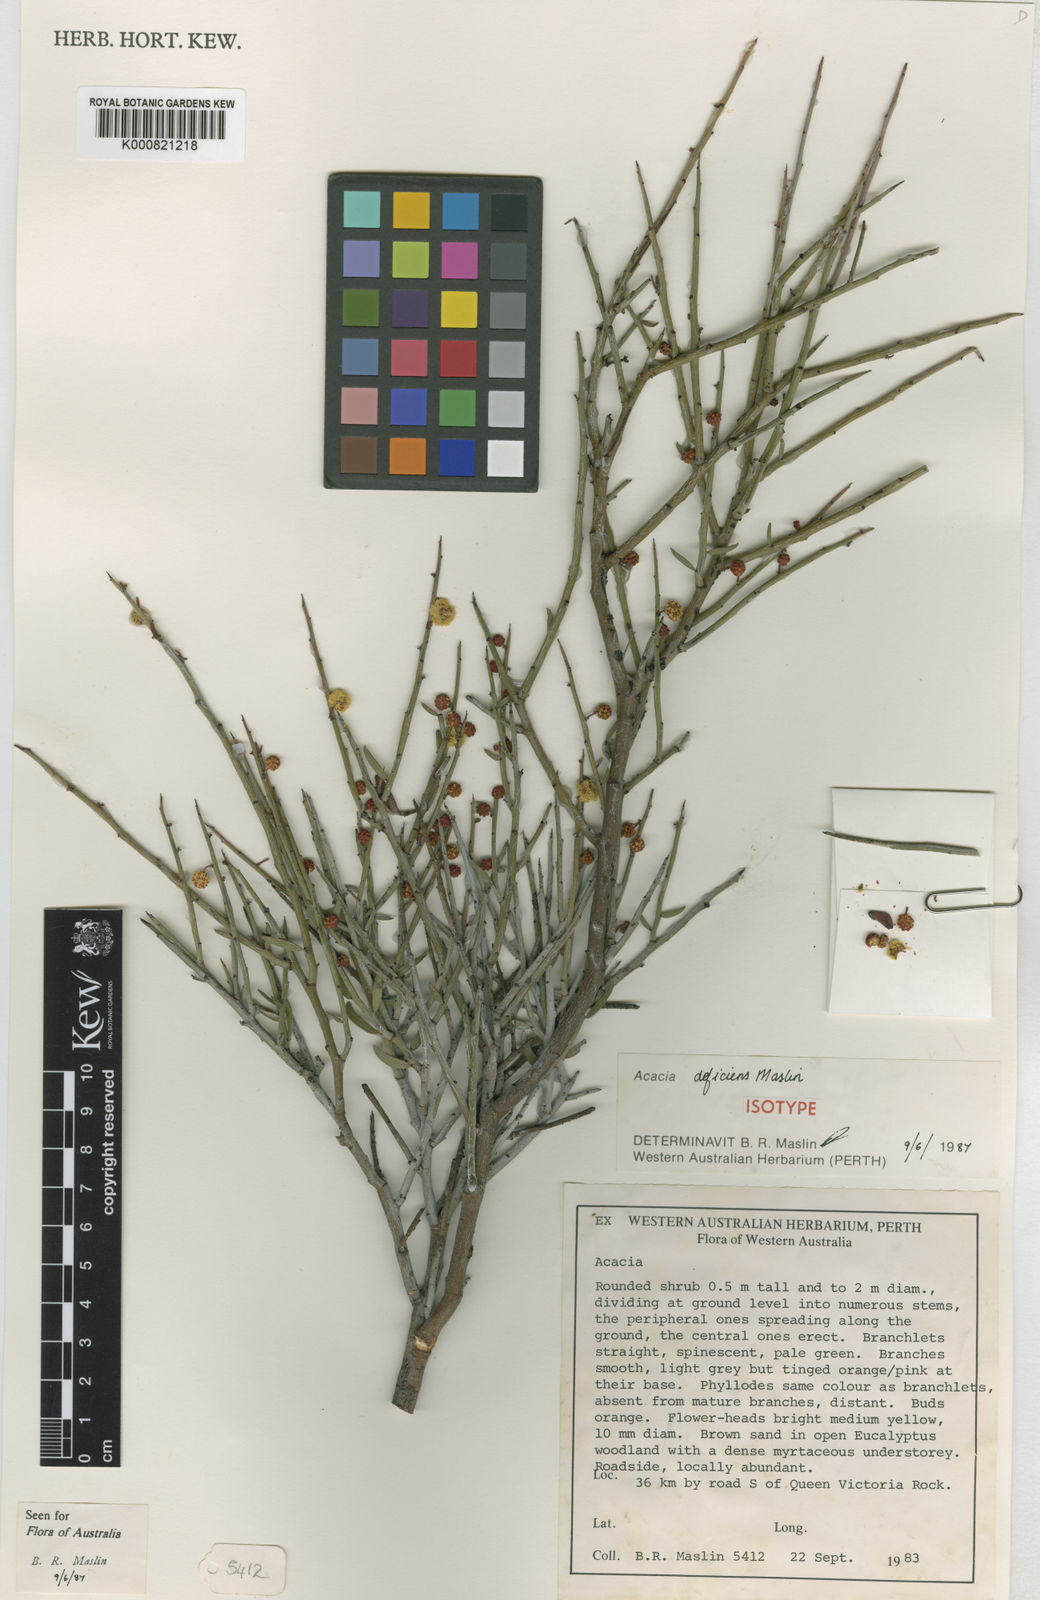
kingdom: Plantae
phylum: Tracheophyta
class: Magnoliopsida
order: Fabales
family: Fabaceae
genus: Acacia
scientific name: Acacia deficiens
